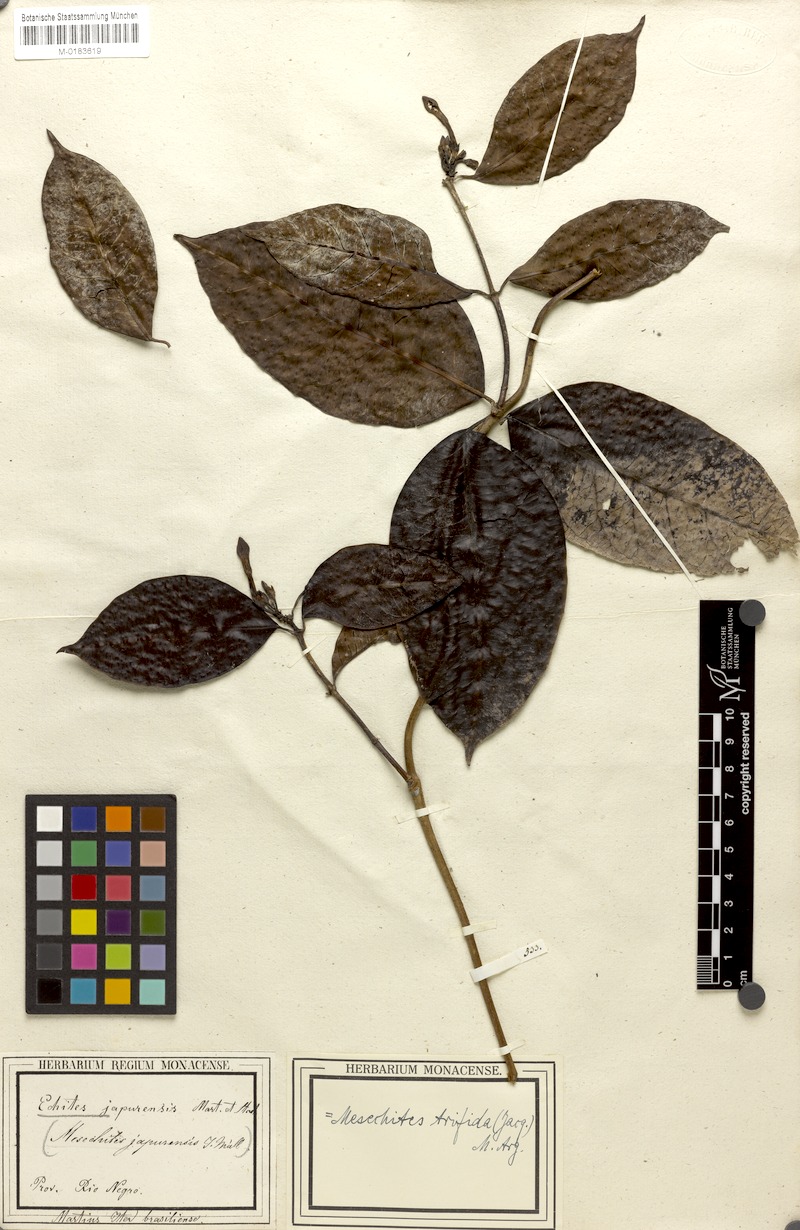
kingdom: Plantae
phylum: Tracheophyta
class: Magnoliopsida
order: Gentianales
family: Apocynaceae
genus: Mesechites
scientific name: Mesechites trifidus
